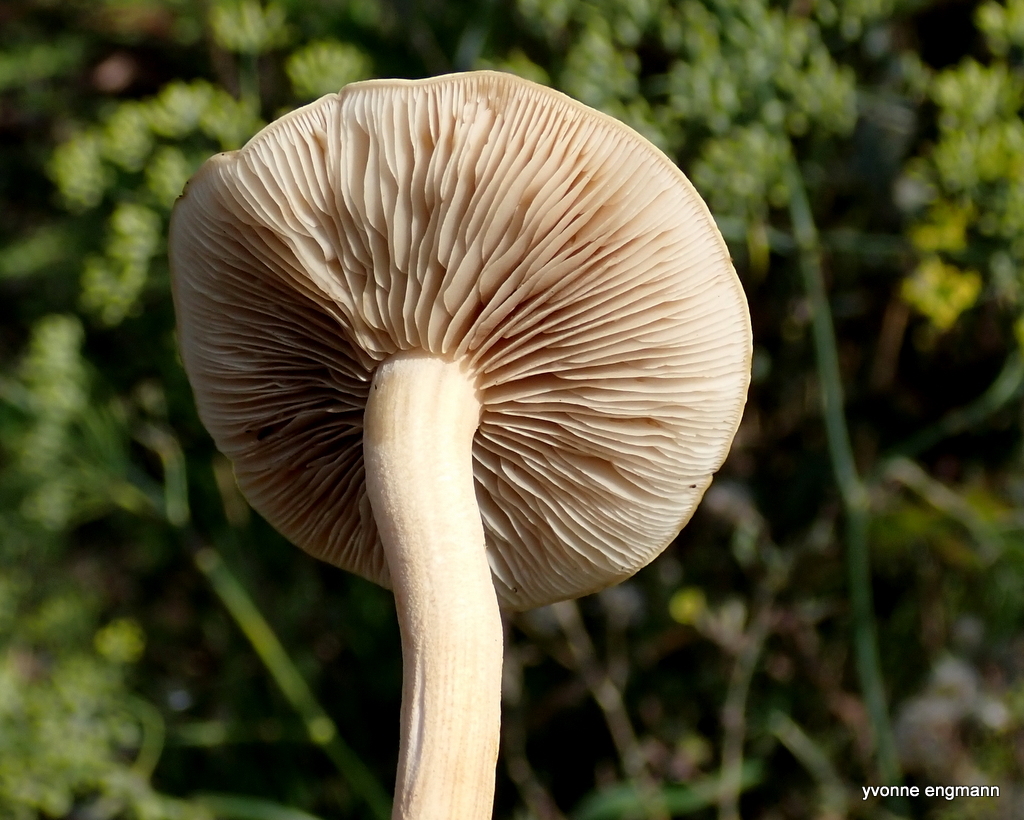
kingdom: Fungi
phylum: Basidiomycota
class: Agaricomycetes
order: Agaricales
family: Hymenogastraceae
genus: Hebeloma
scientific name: Hebeloma
